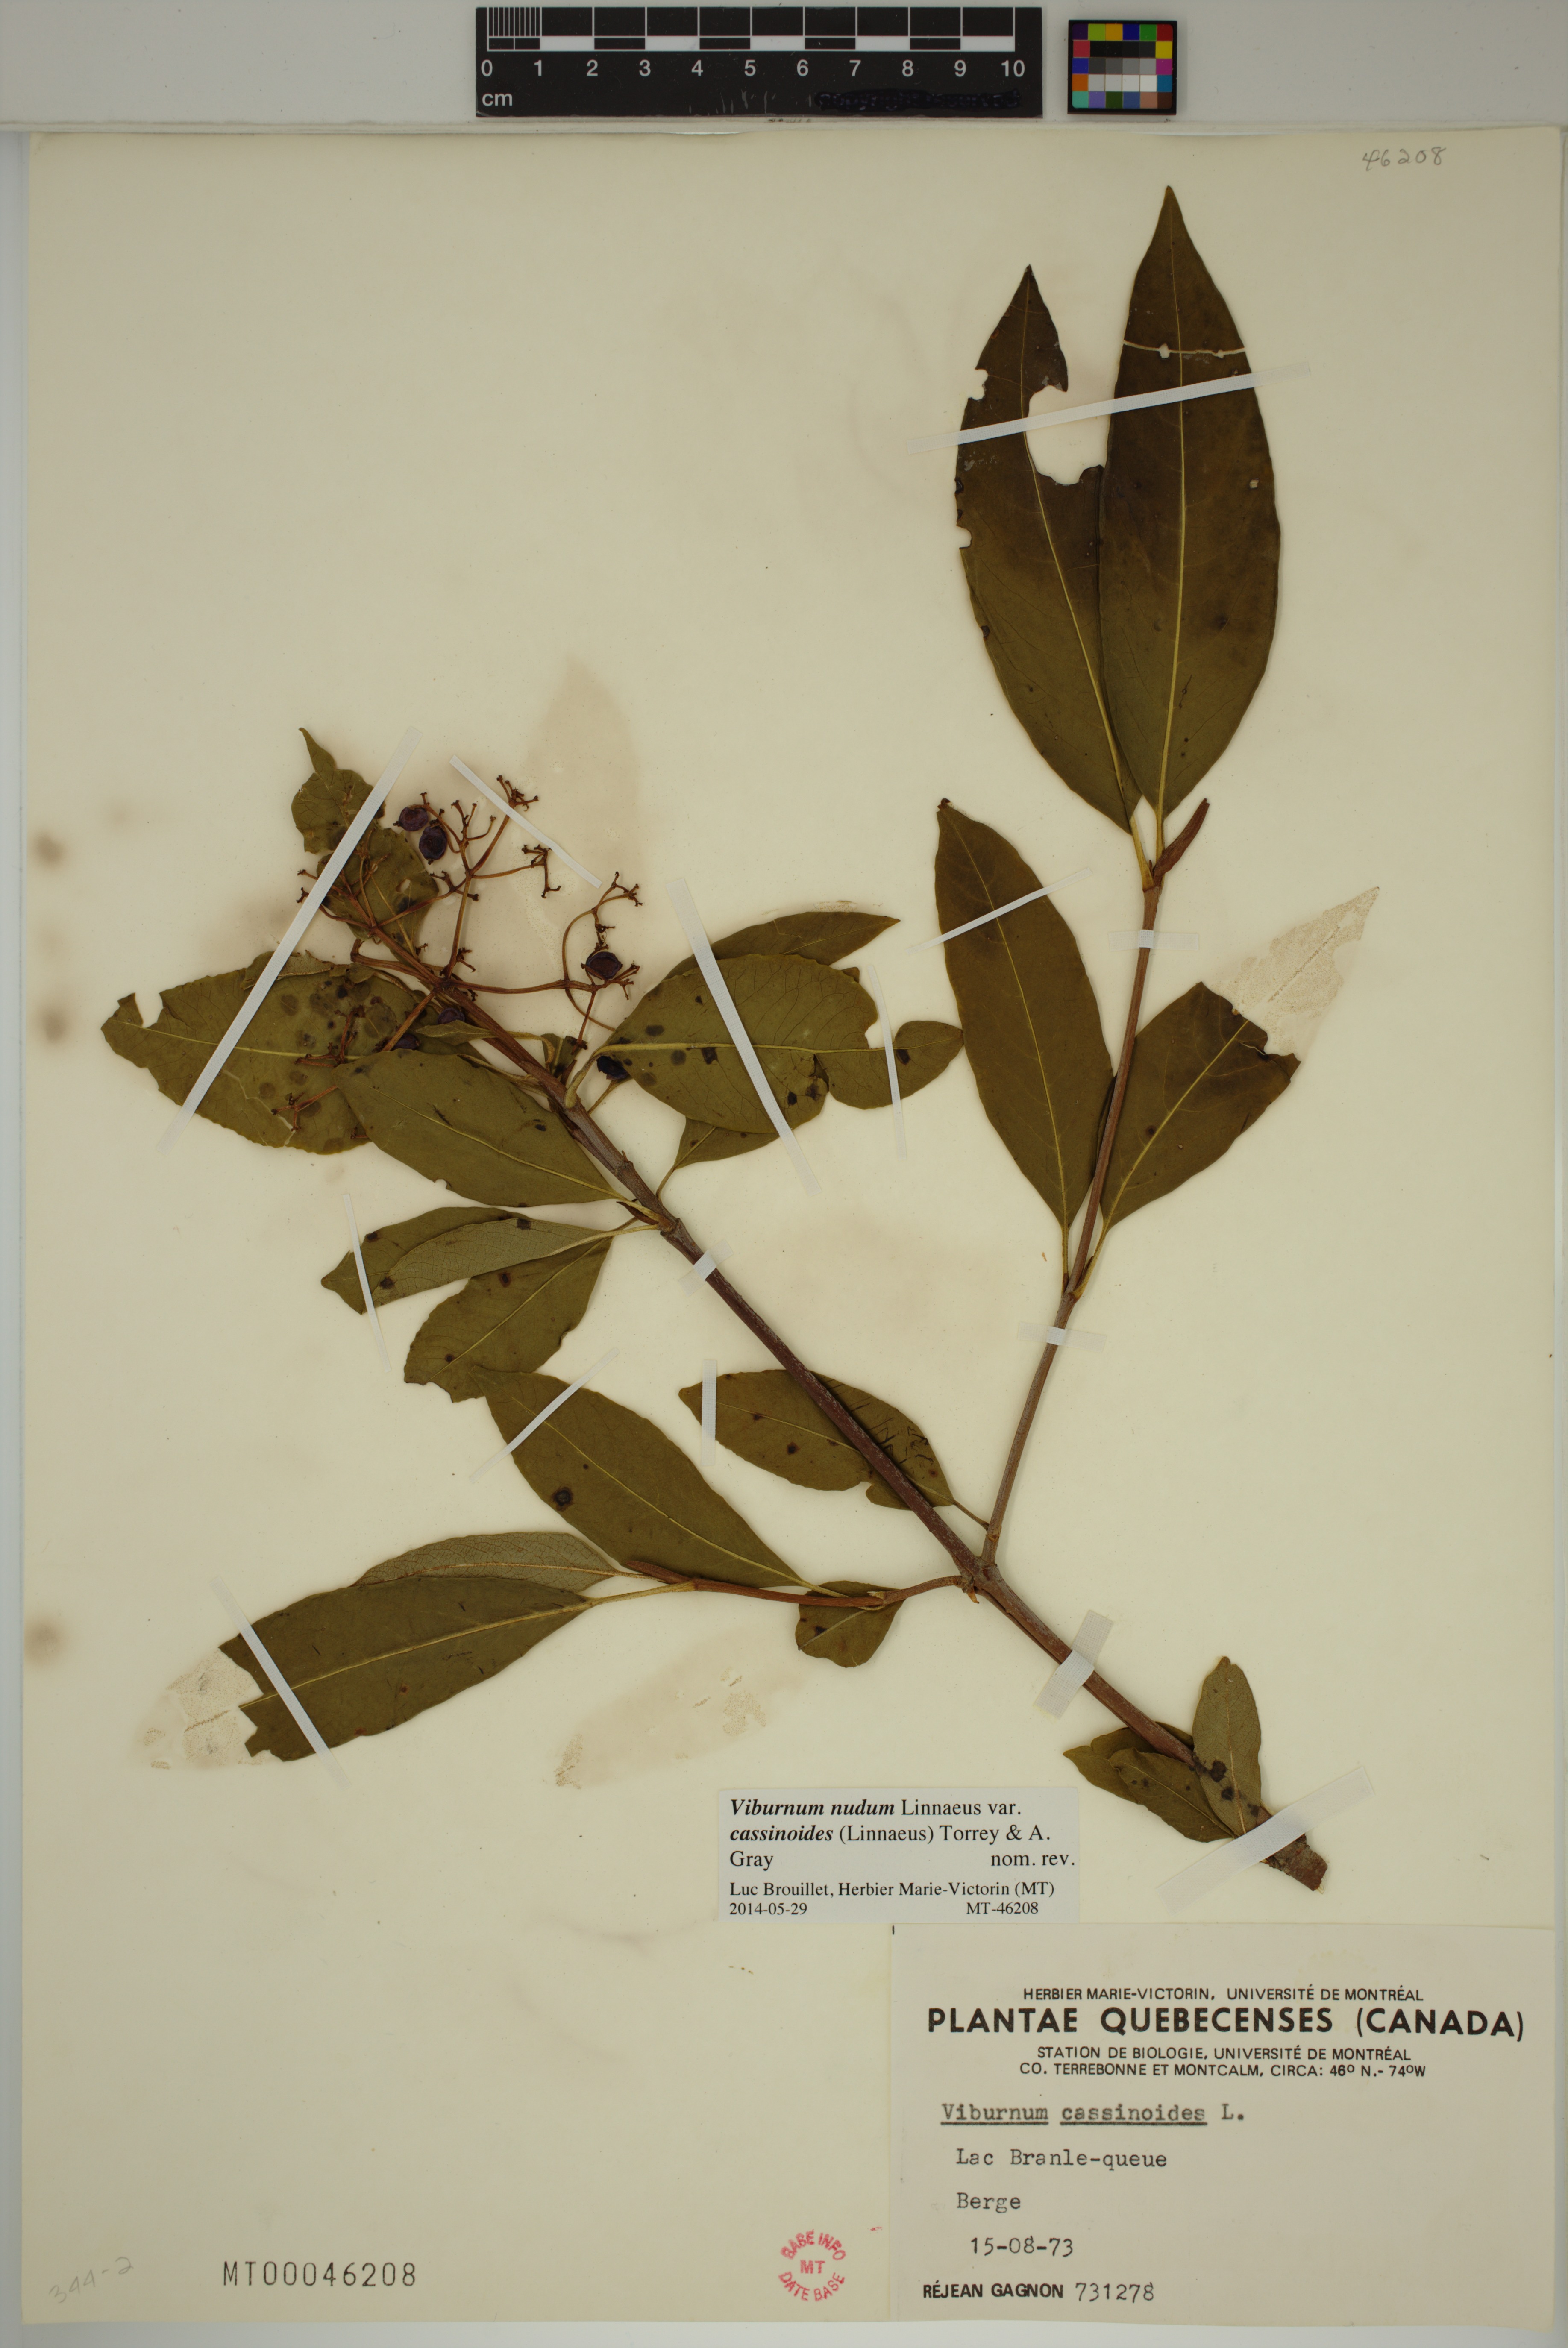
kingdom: Plantae
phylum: Tracheophyta
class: Magnoliopsida
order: Dipsacales
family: Viburnaceae
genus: Viburnum
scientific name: Viburnum cassinoides
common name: Swamp haw
